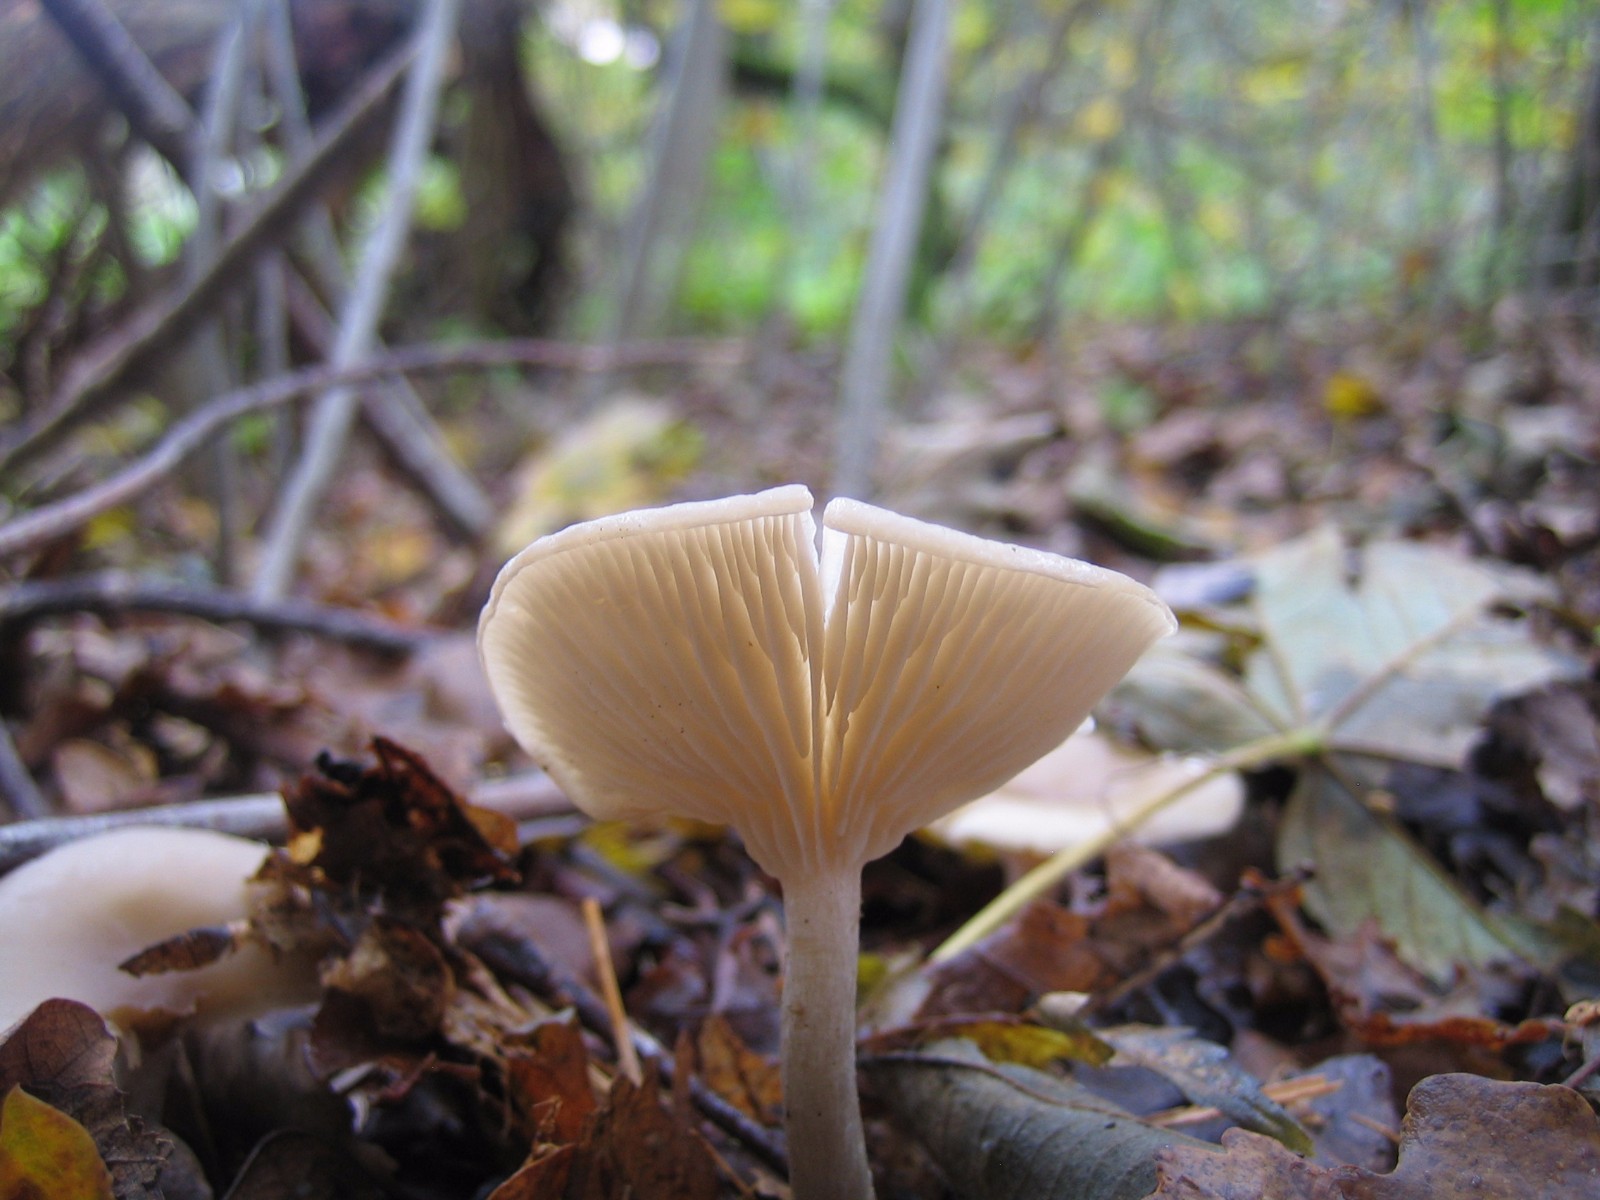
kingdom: Fungi
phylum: Basidiomycota
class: Agaricomycetes
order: Agaricales
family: Tricholomataceae
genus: Clitocybe
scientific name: Clitocybe metachroa
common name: grå tragthat
